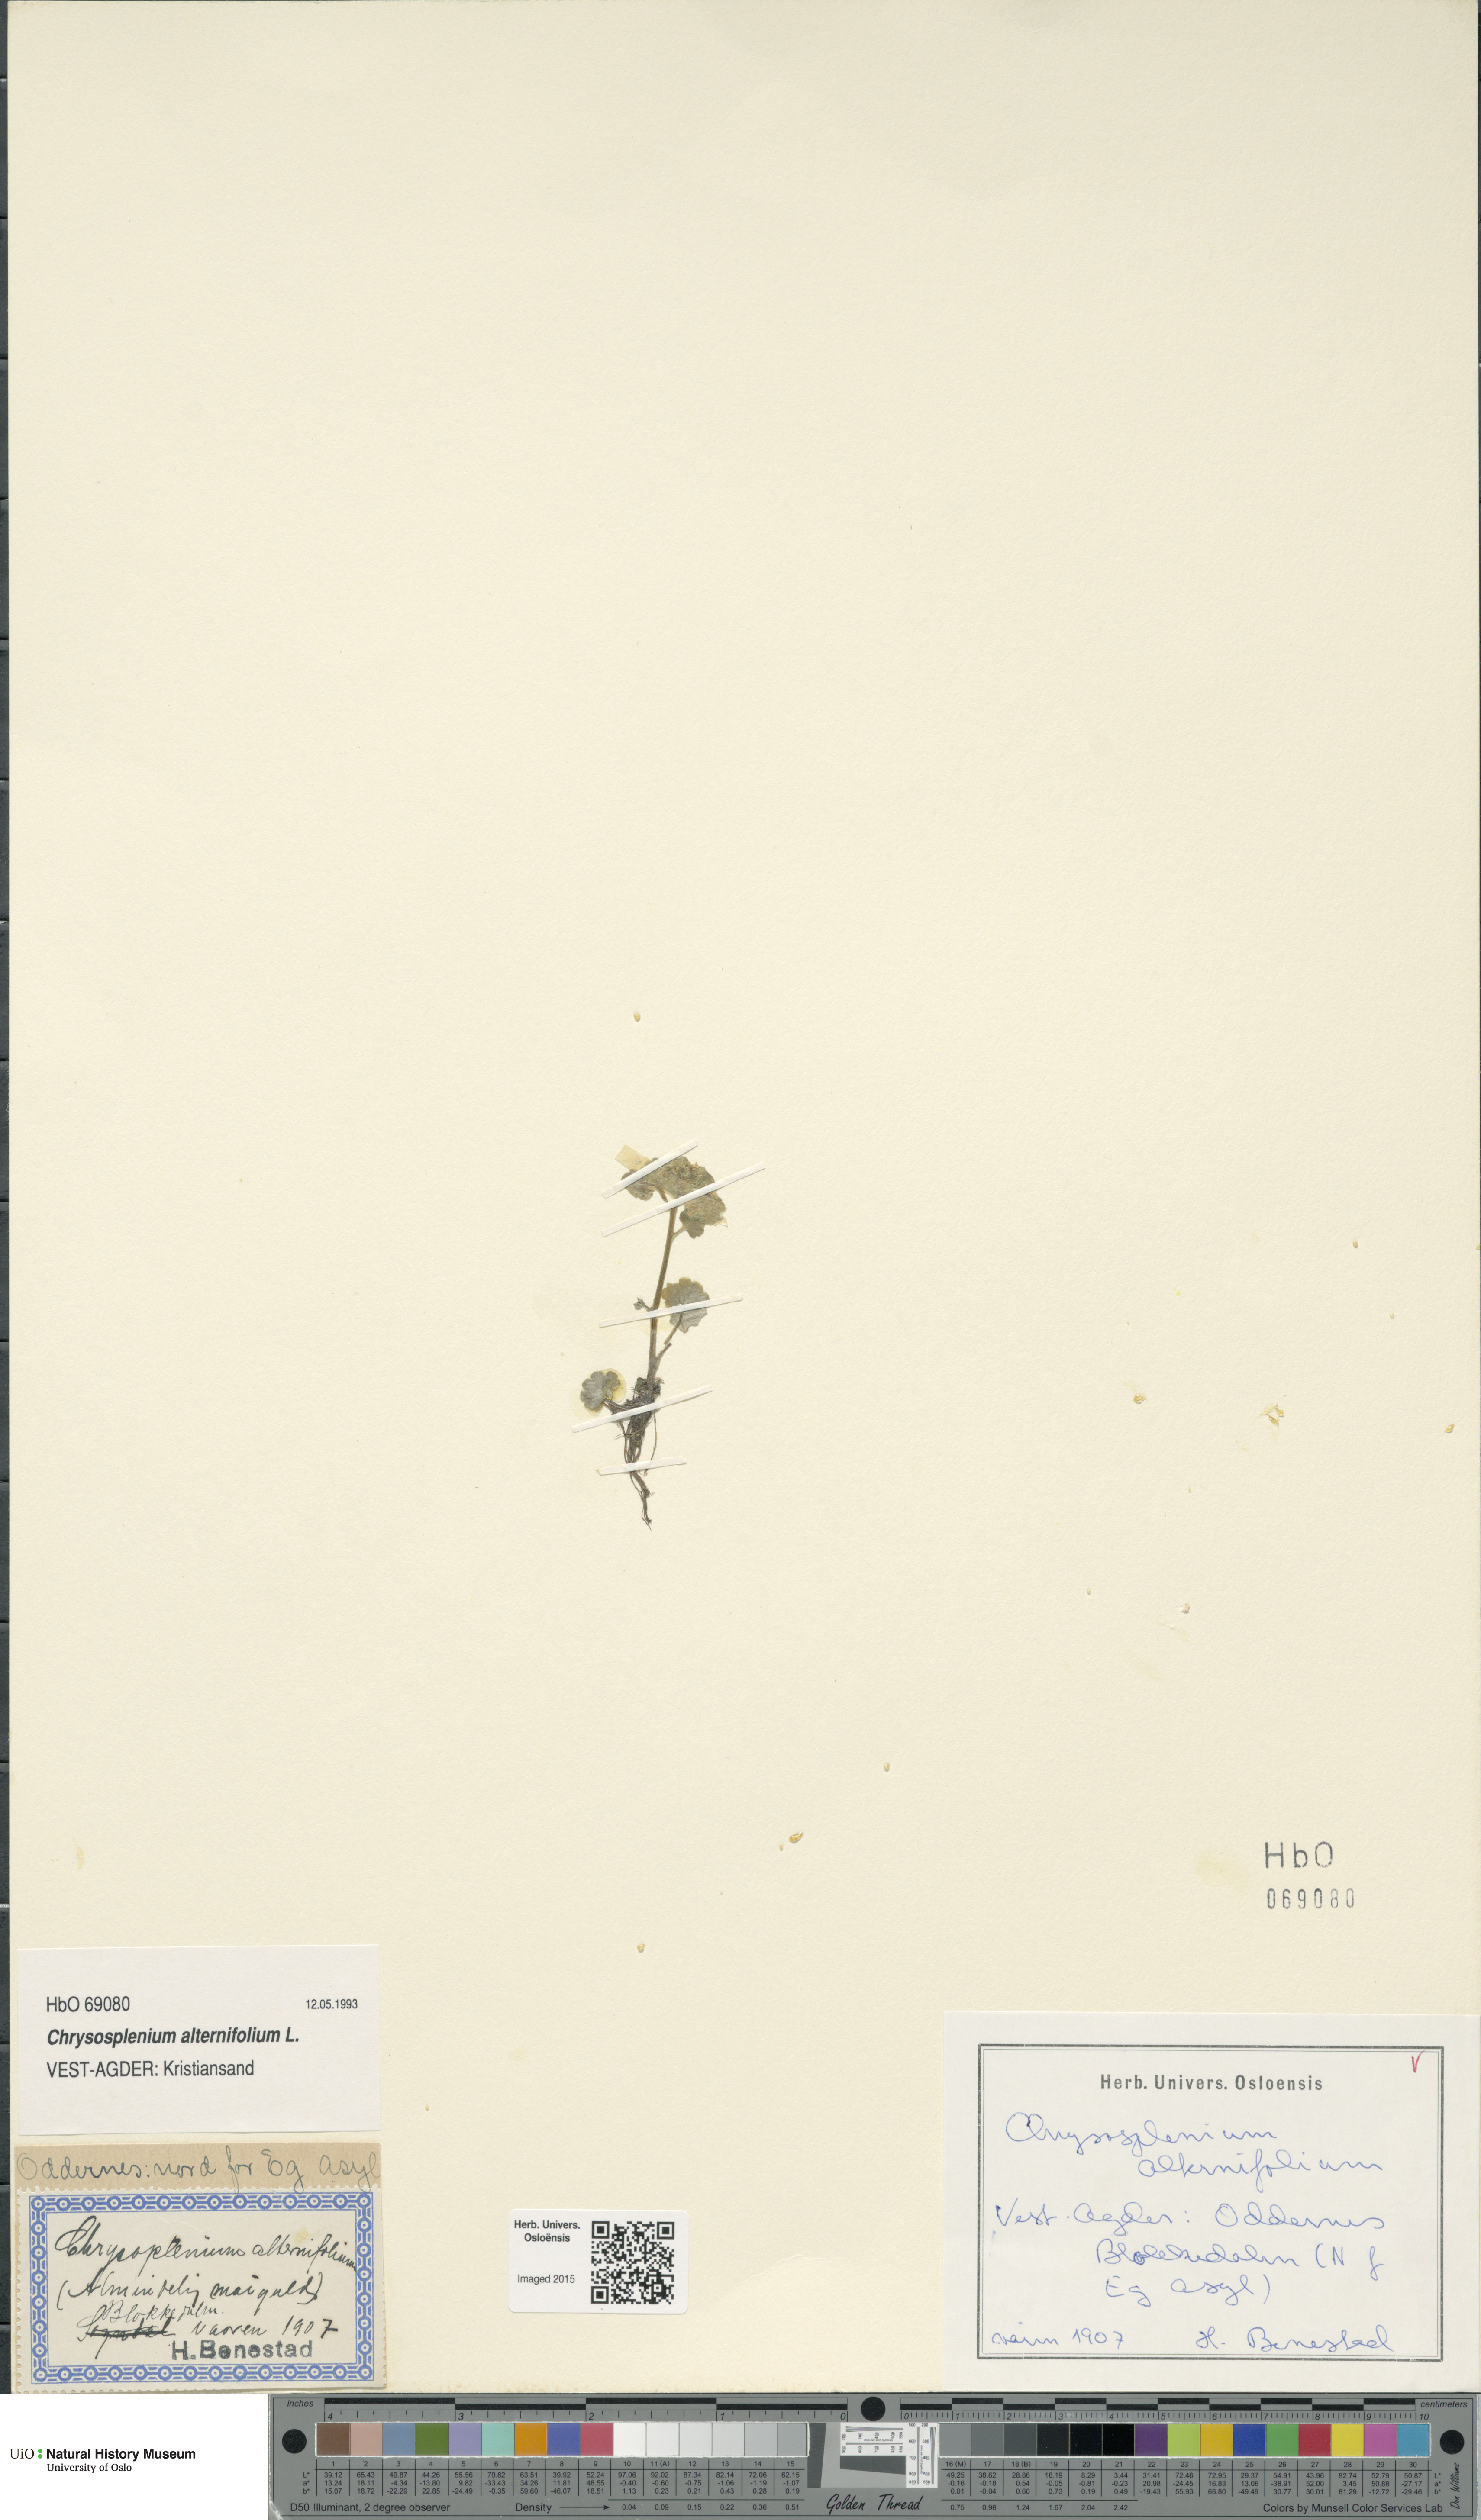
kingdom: Plantae
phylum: Tracheophyta
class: Magnoliopsida
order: Saxifragales
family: Saxifragaceae
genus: Chrysosplenium
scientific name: Chrysosplenium alternifolium
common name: Alternate-leaved golden-saxifrage
